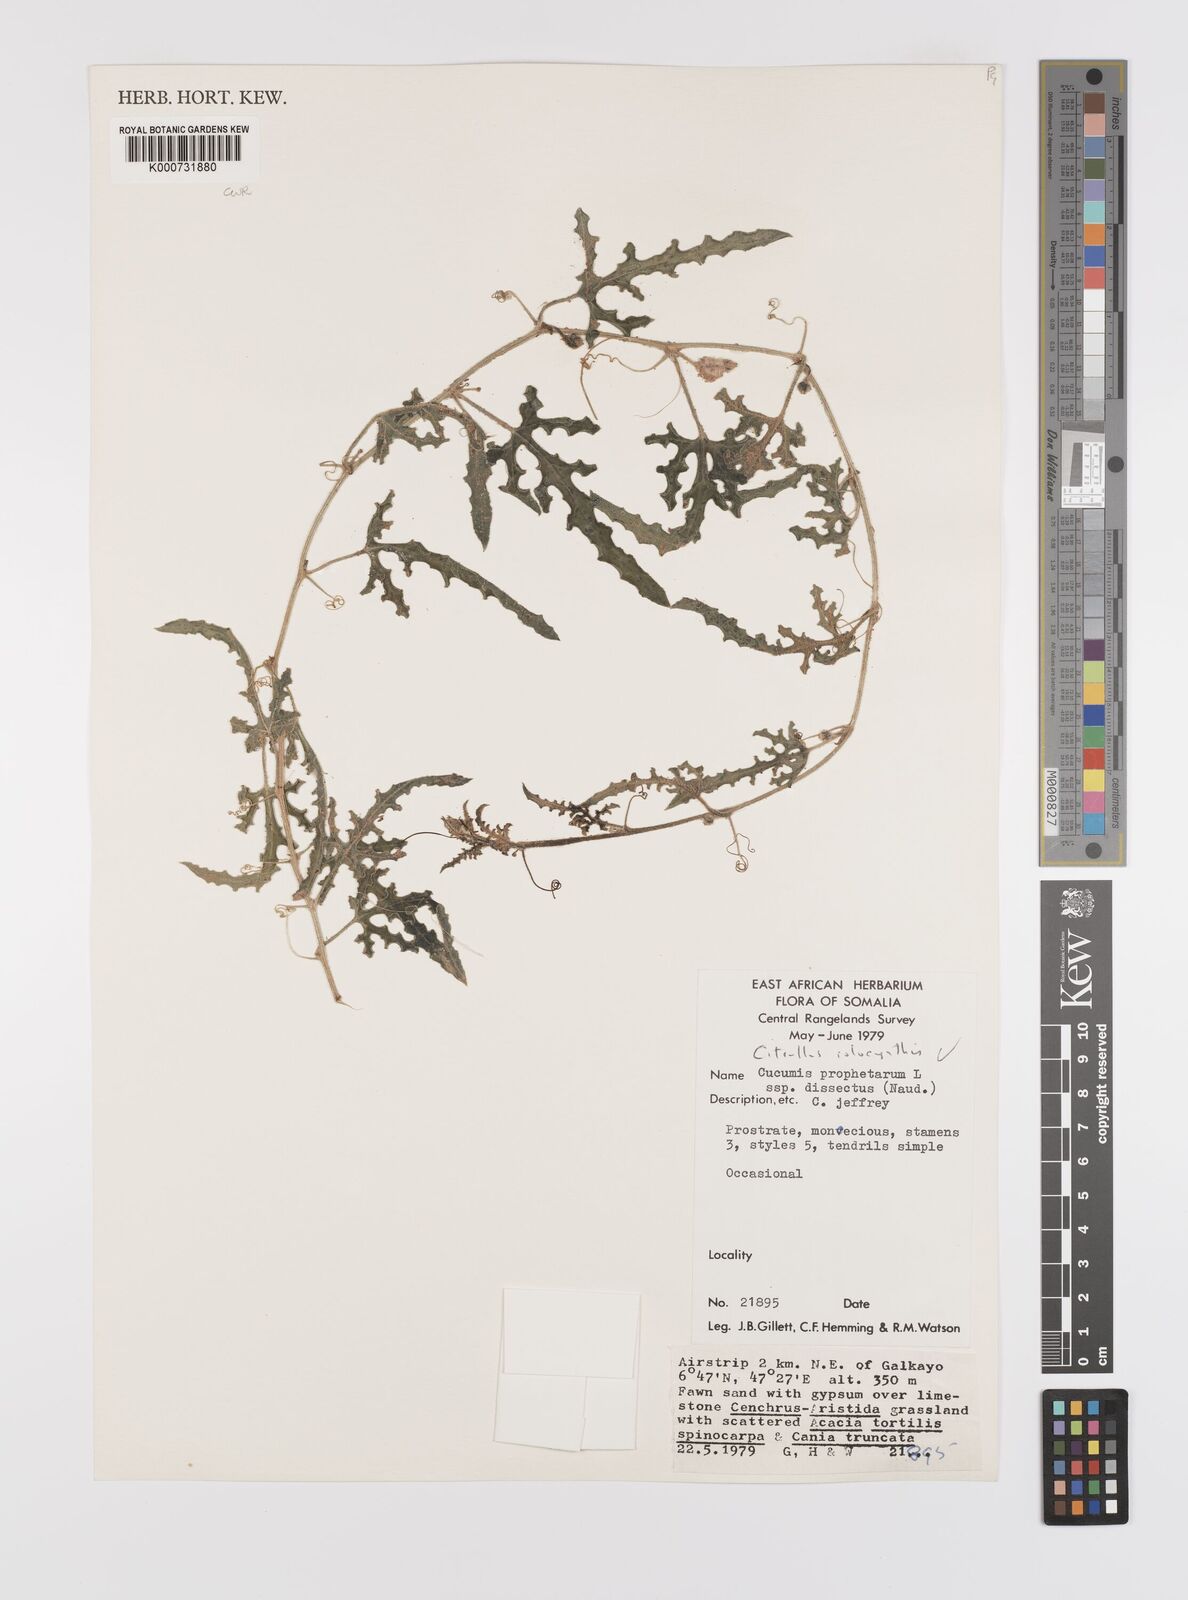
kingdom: Plantae
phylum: Tracheophyta
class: Magnoliopsida
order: Cucurbitales
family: Cucurbitaceae
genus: Citrullus
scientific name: Citrullus colocynthis
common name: Colocynth
